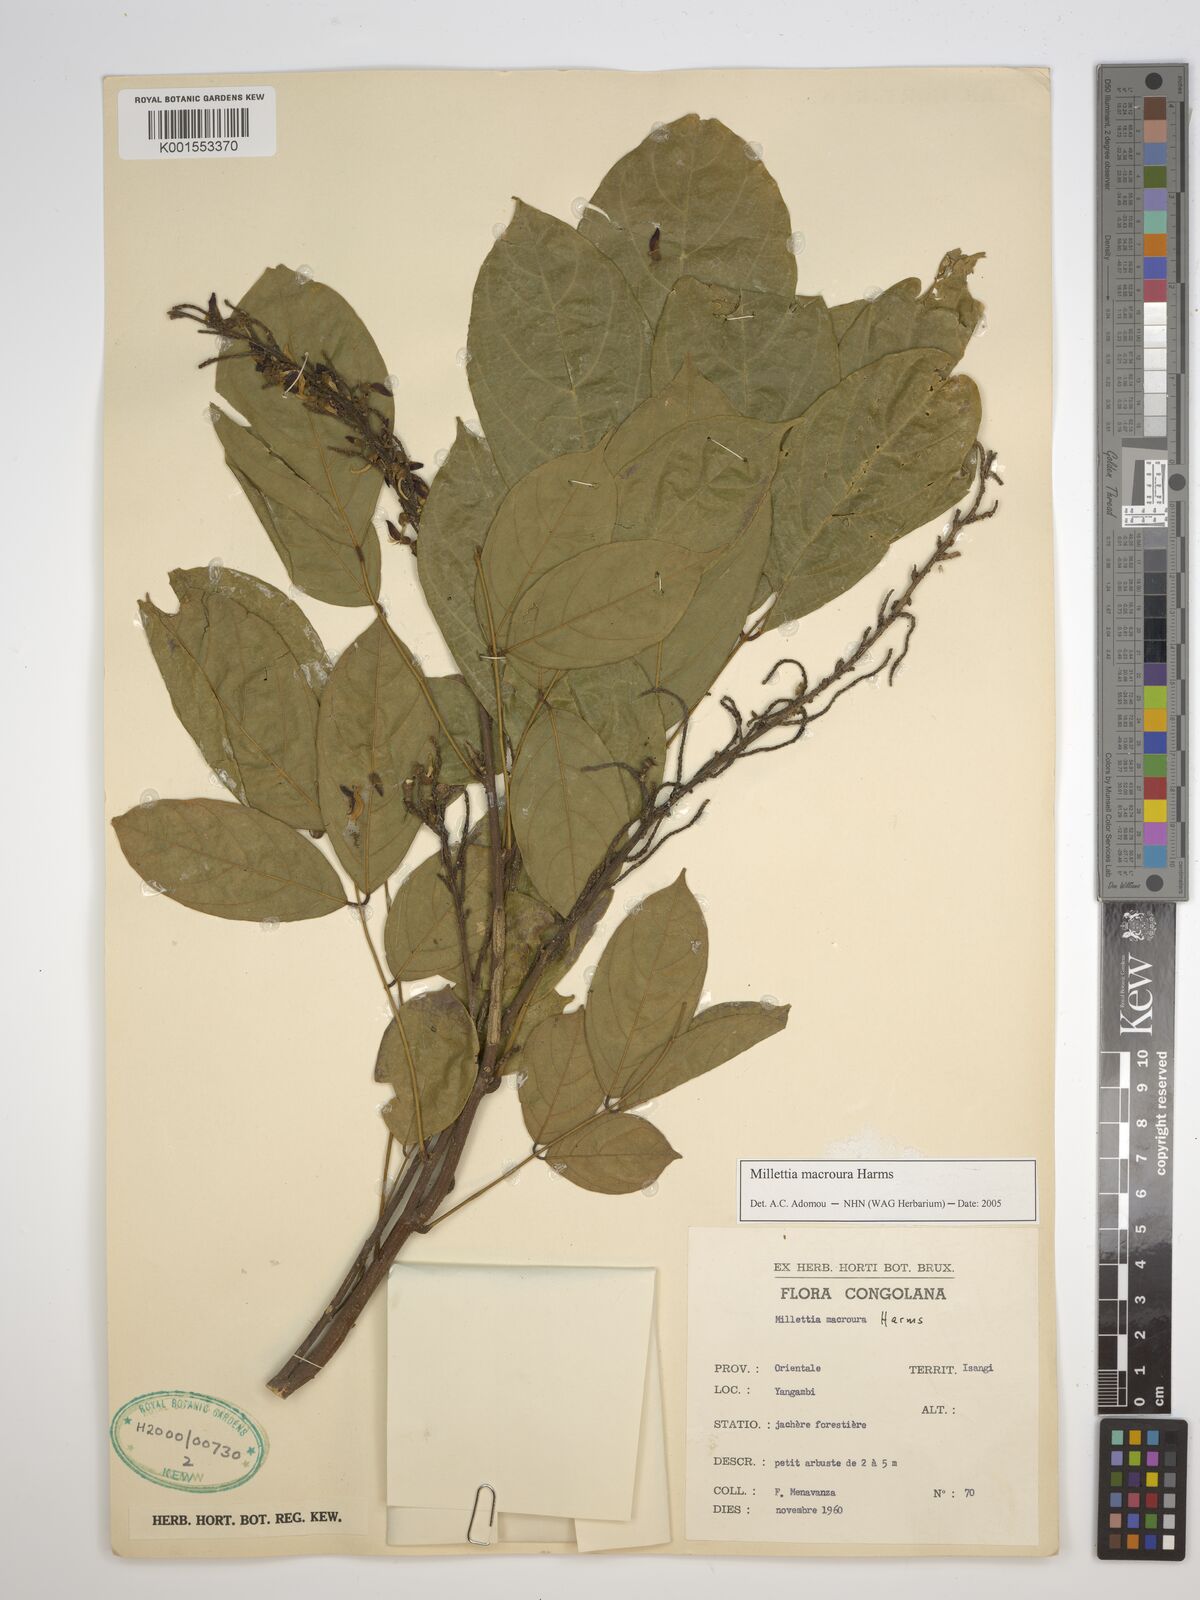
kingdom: Plantae
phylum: Tracheophyta
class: Magnoliopsida
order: Fabales
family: Fabaceae
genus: Millettia
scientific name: Millettia macroura
